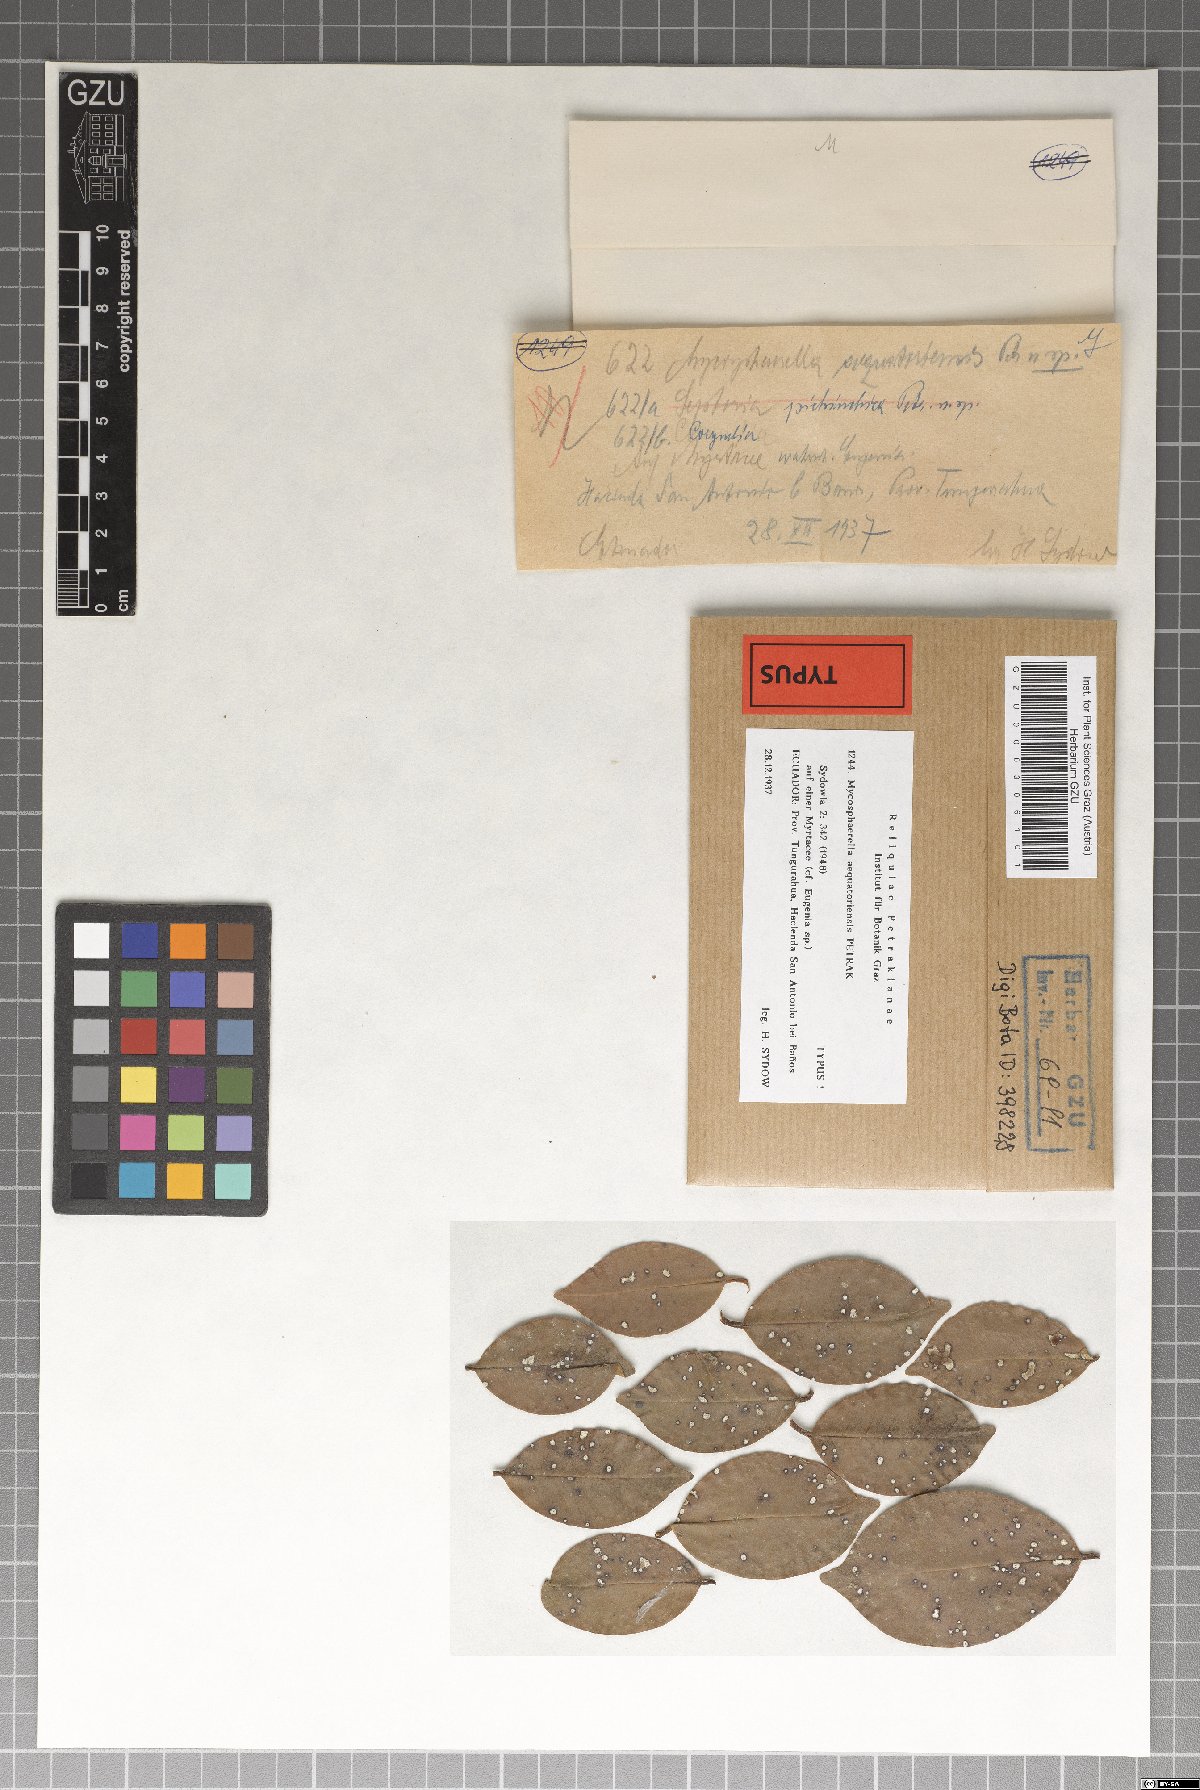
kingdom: Fungi
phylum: Ascomycota
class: Dothideomycetes
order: Mycosphaerellales
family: Mycosphaerellaceae
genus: Mycosphaerella
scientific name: Mycosphaerella aequatoriensis
